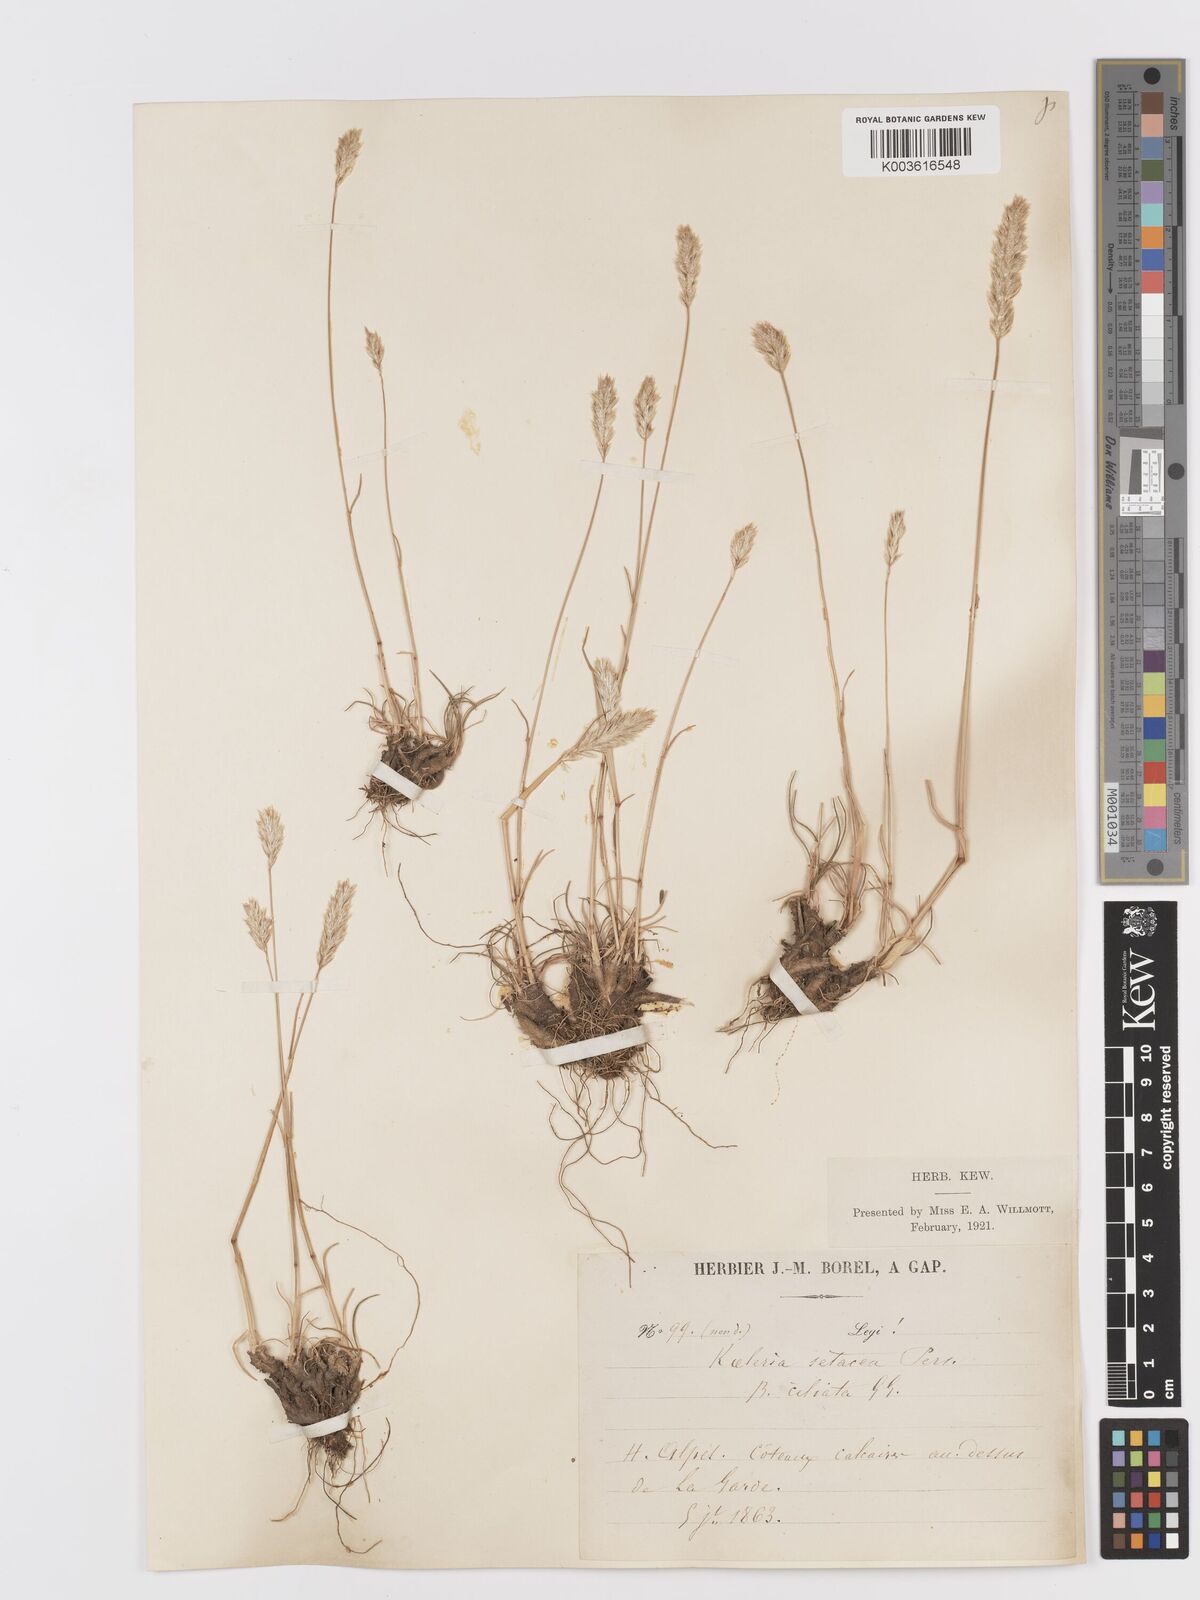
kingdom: Plantae
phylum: Tracheophyta
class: Liliopsida
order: Poales
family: Poaceae
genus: Koeleria
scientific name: Koeleria vallesiana
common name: Somerset hair-grass
